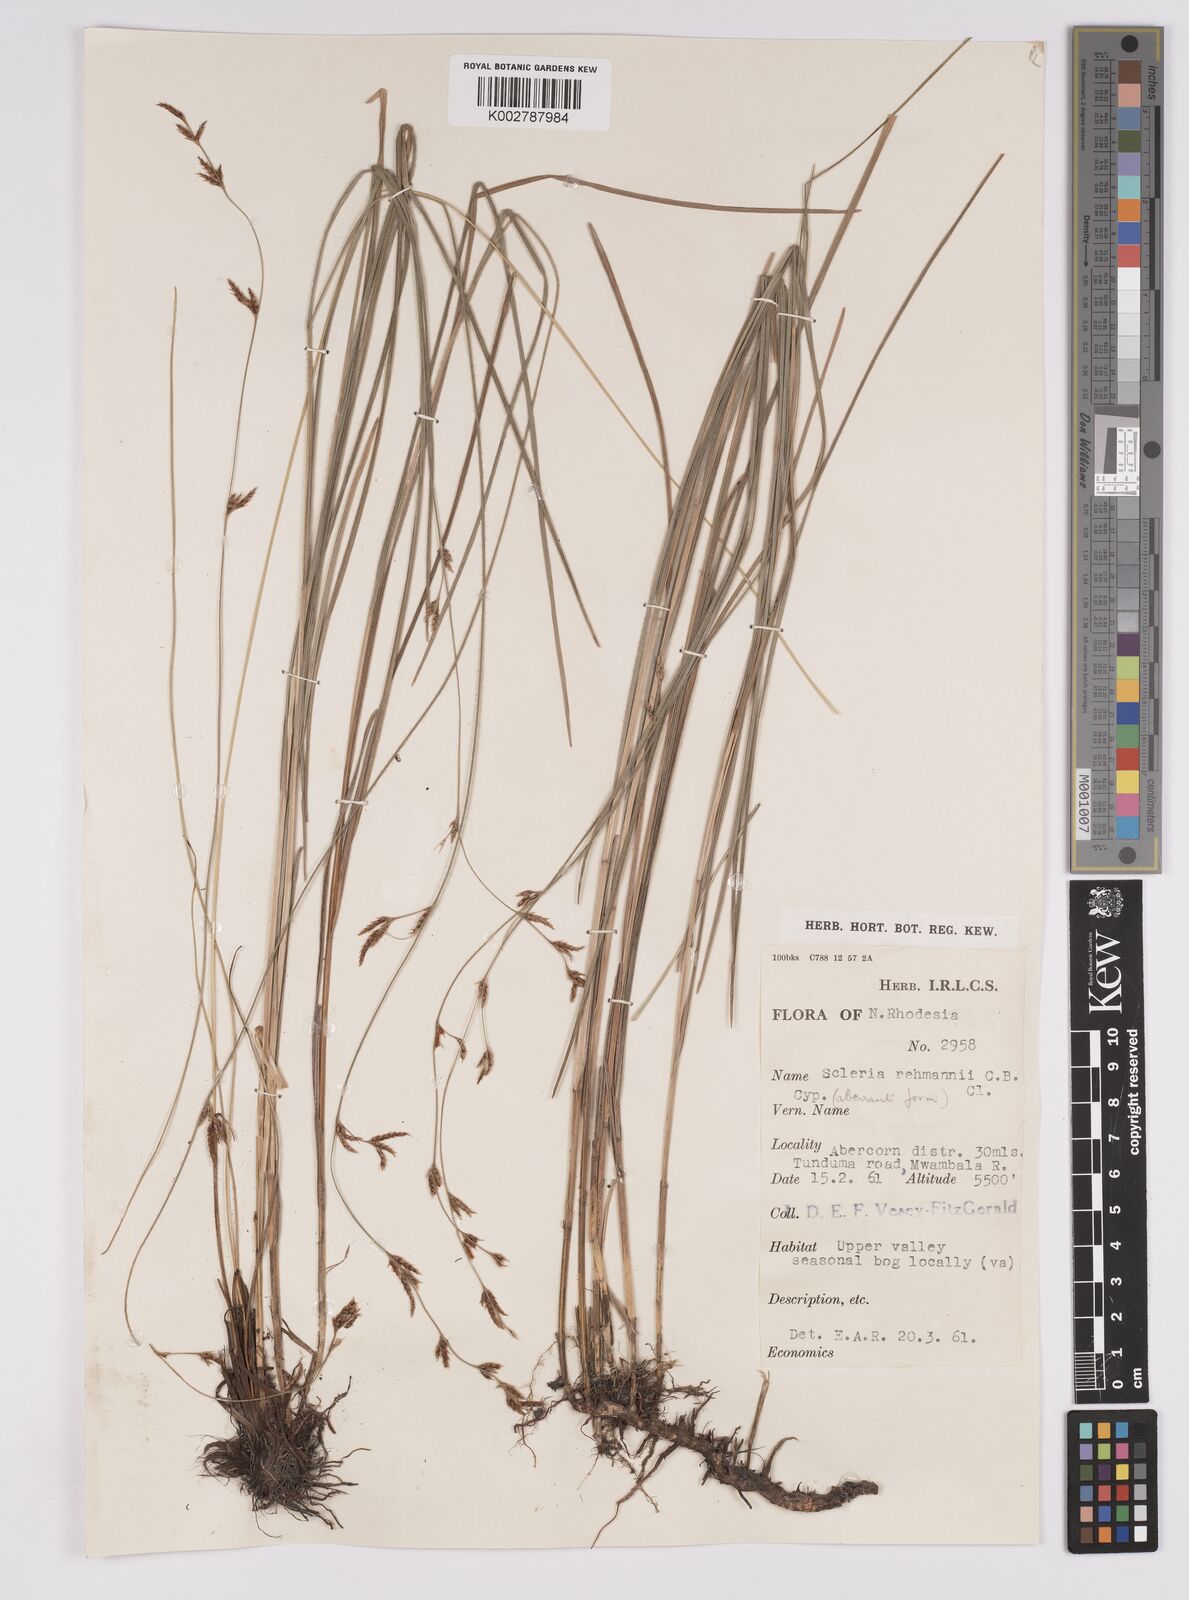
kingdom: Plantae
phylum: Tracheophyta
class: Liliopsida
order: Poales
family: Cyperaceae
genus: Scleria
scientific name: Scleria rehmannii
